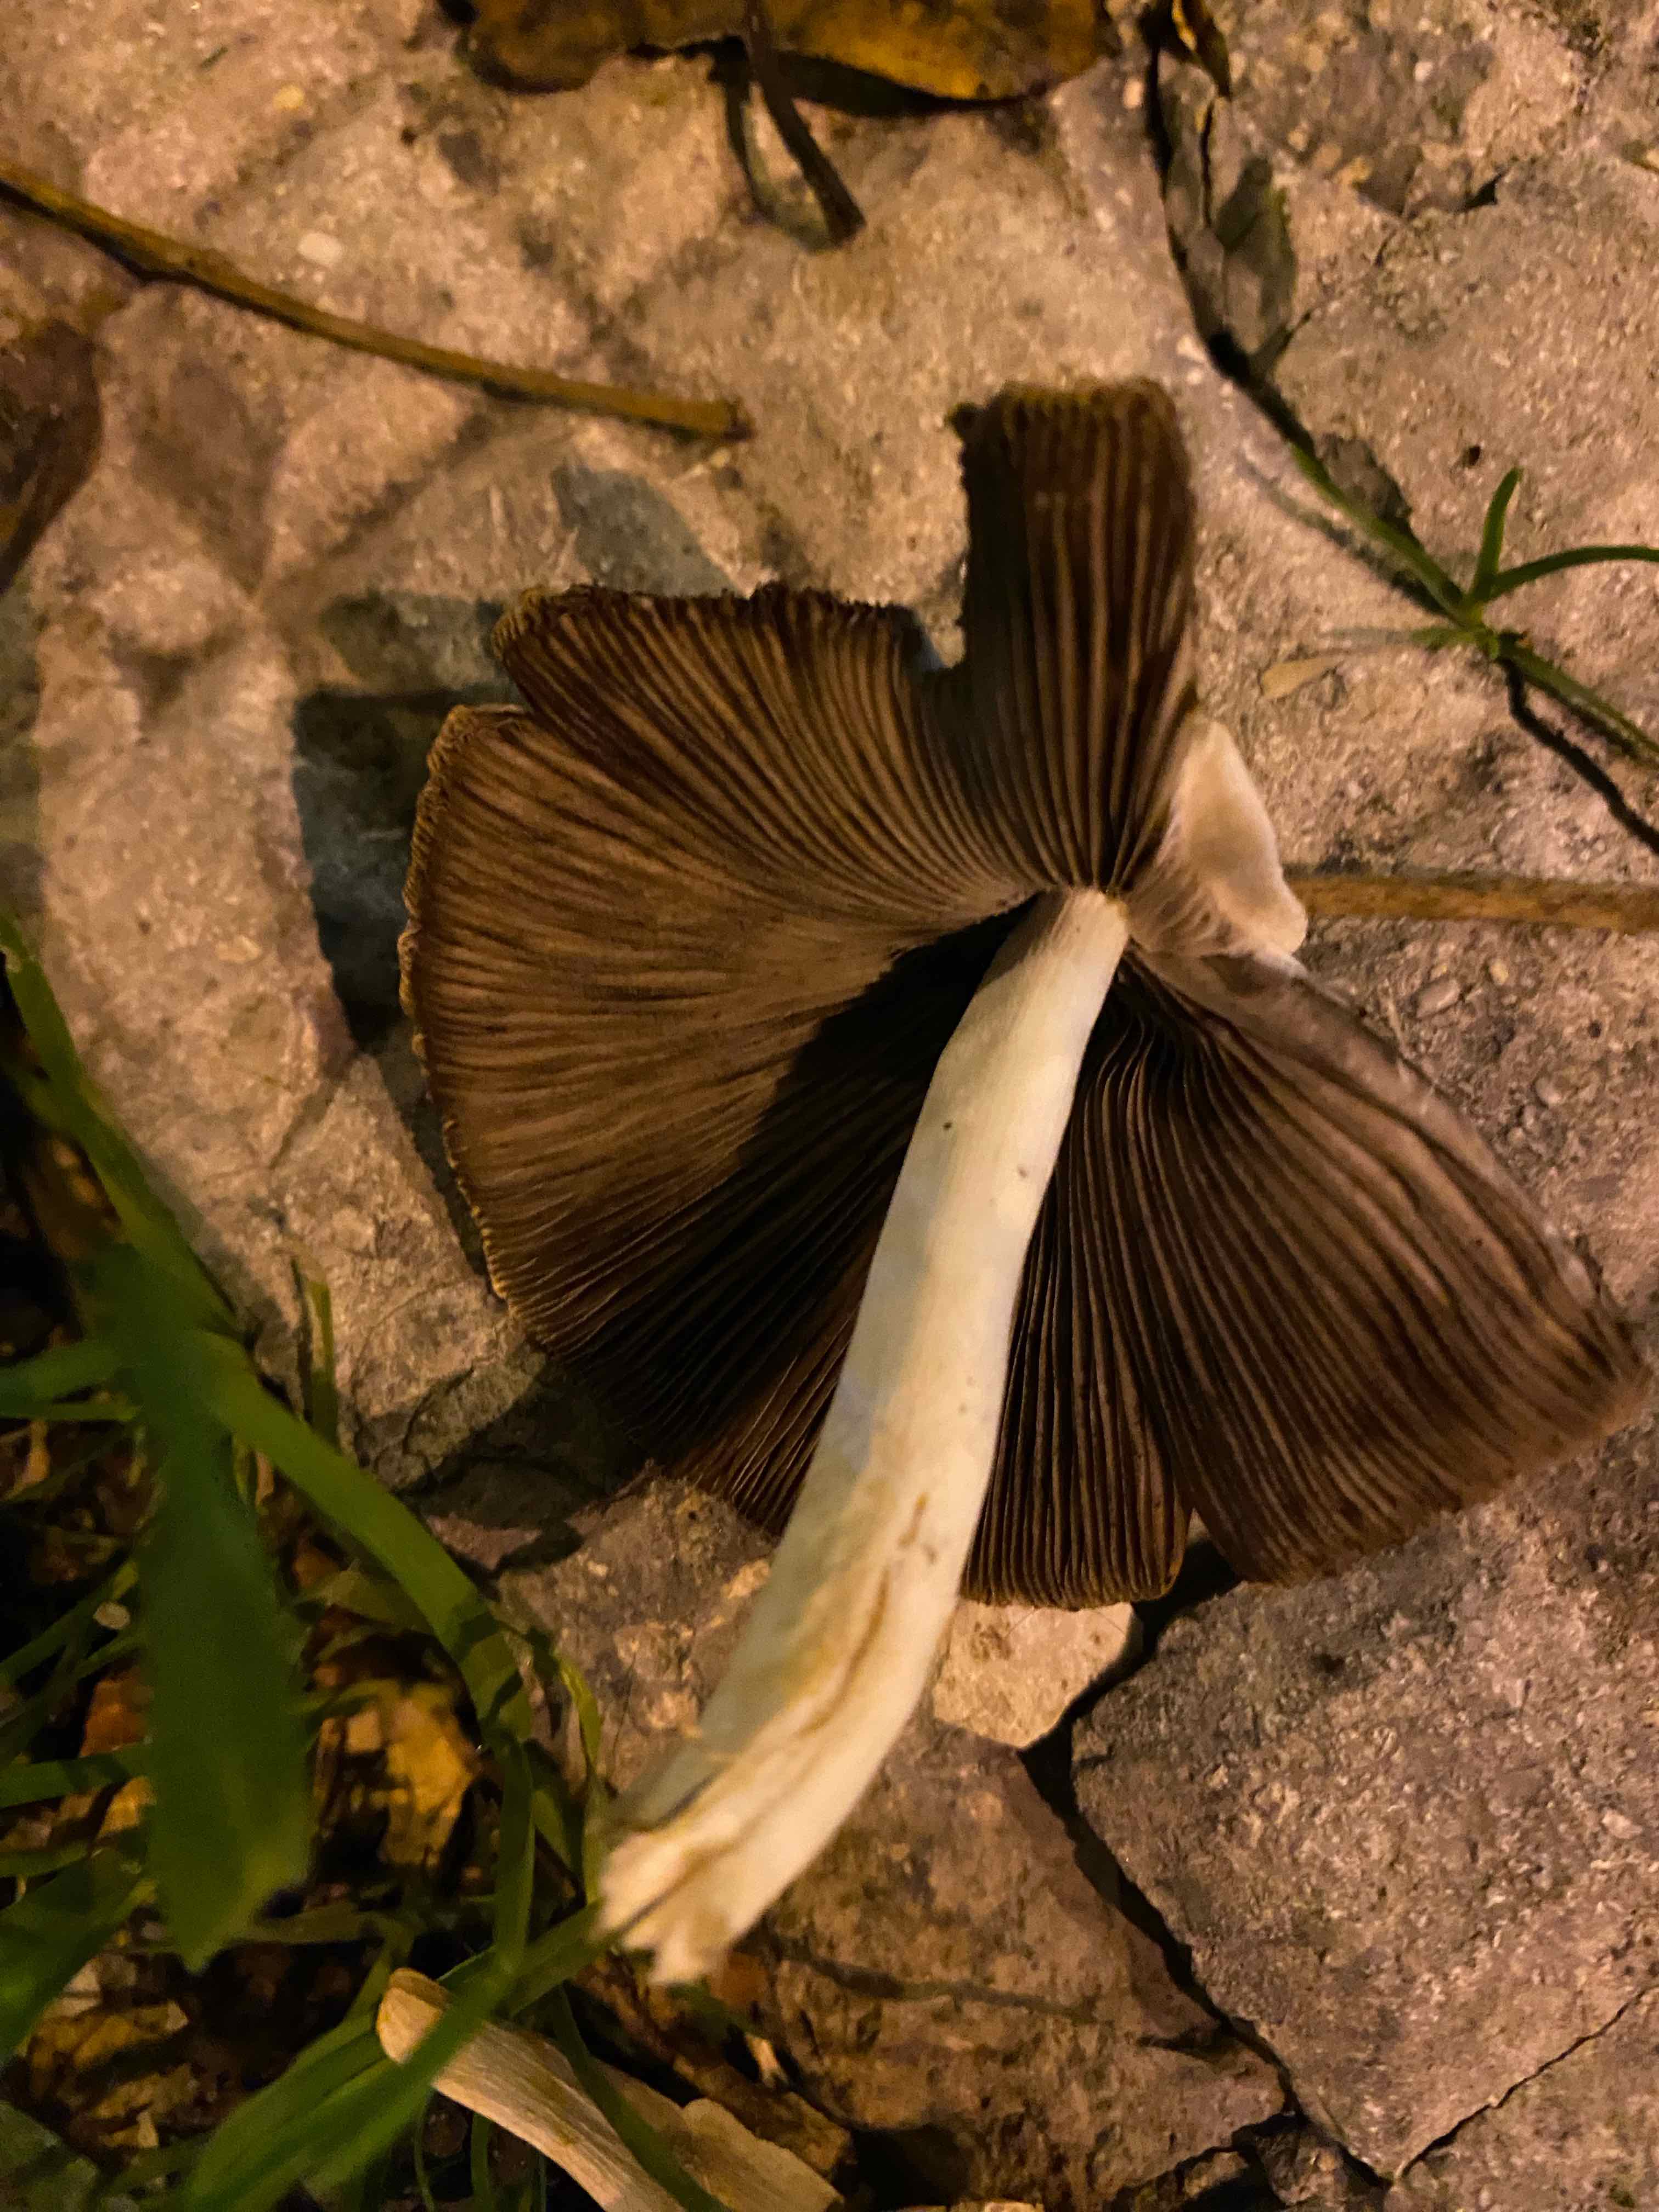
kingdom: Fungi
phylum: Basidiomycota
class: Agaricomycetes
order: Agaricales
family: Psathyrellaceae
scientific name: Psathyrellaceae
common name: mørkhatfamilien
